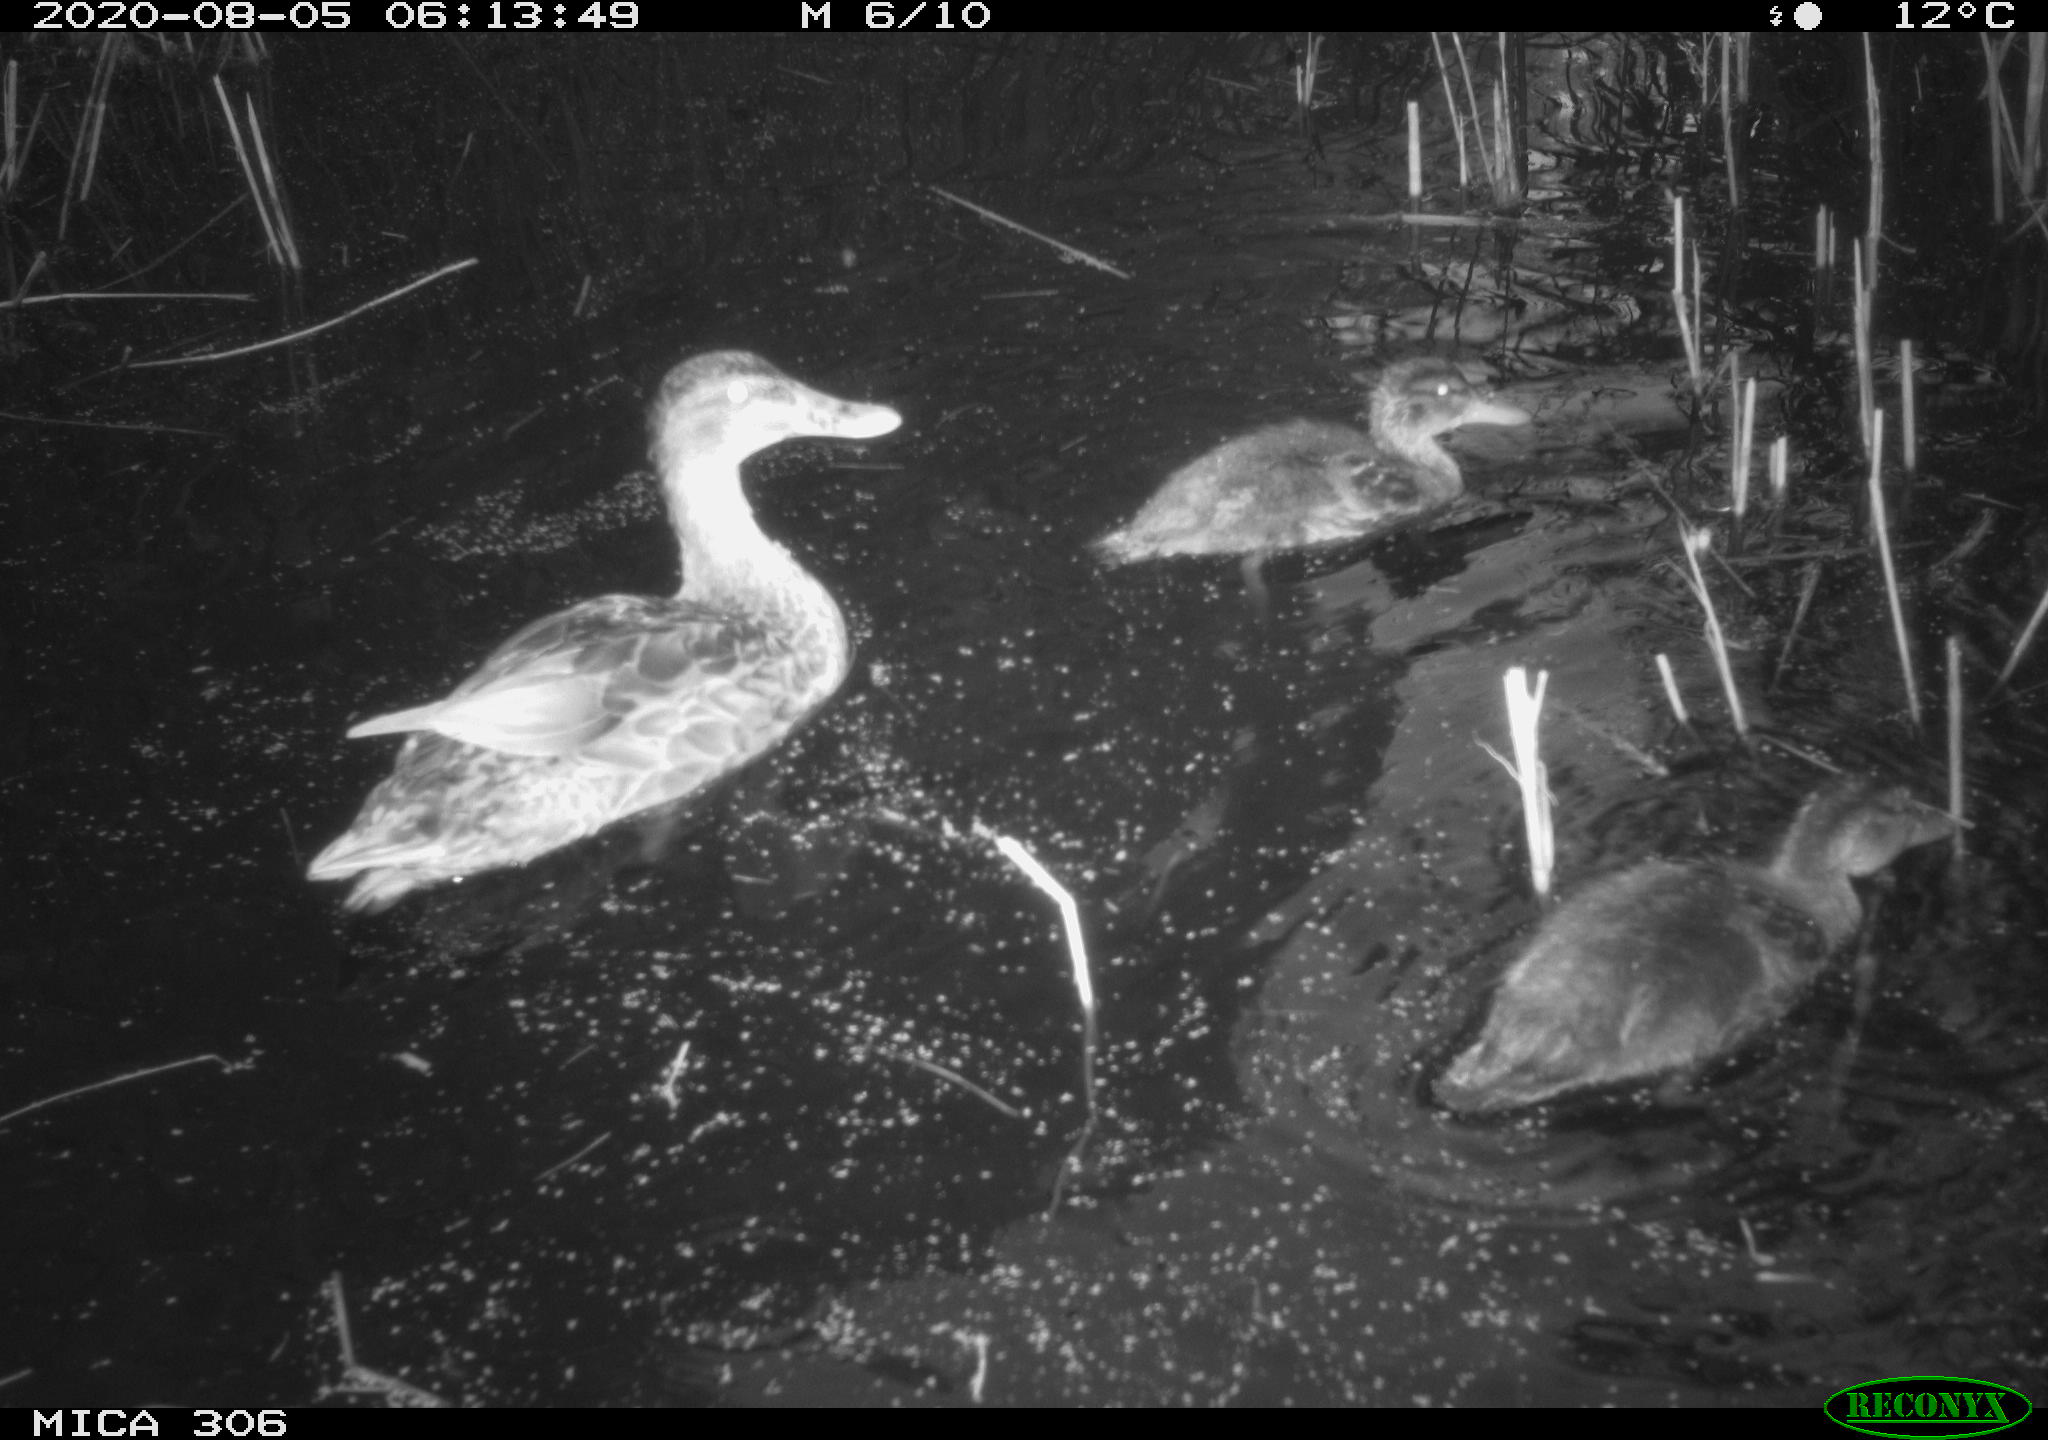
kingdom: Animalia
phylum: Chordata
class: Aves
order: Anseriformes
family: Anatidae
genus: Anas
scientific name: Anas platyrhynchos
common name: Mallard
